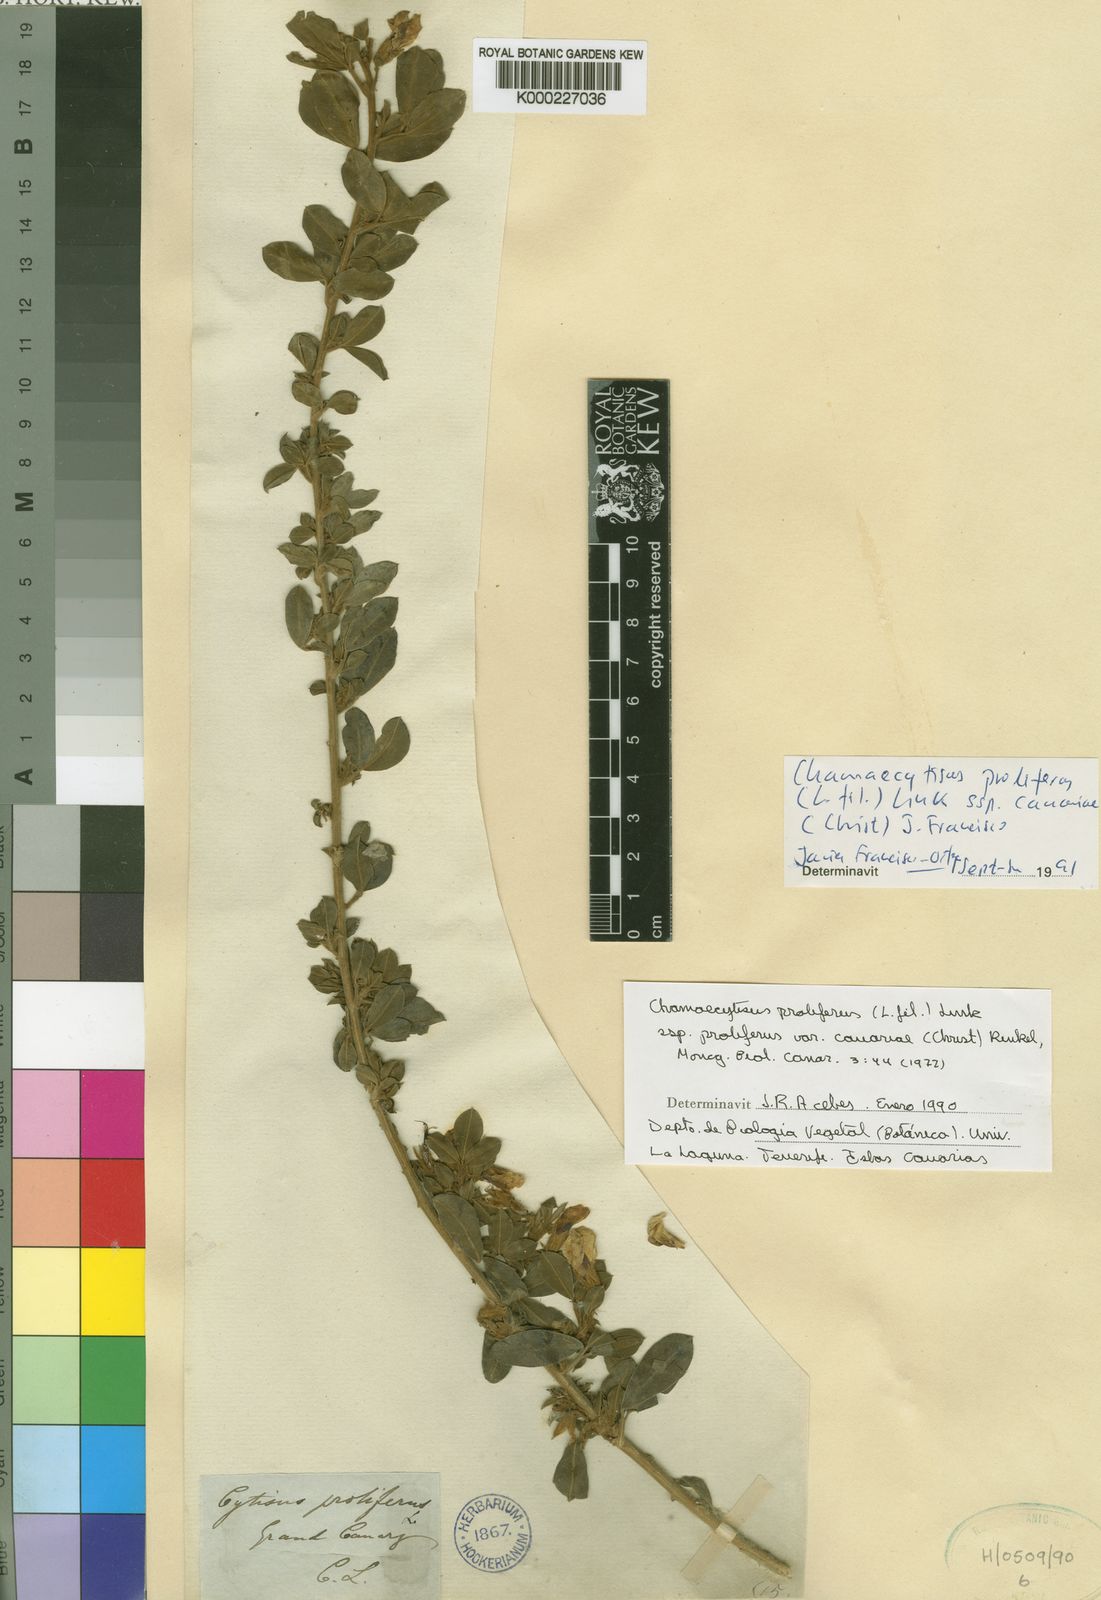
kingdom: Plantae
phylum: Tracheophyta
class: Magnoliopsida
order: Fabales
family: Fabaceae
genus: Chamaecytisus
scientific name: Chamaecytisus prolifer
